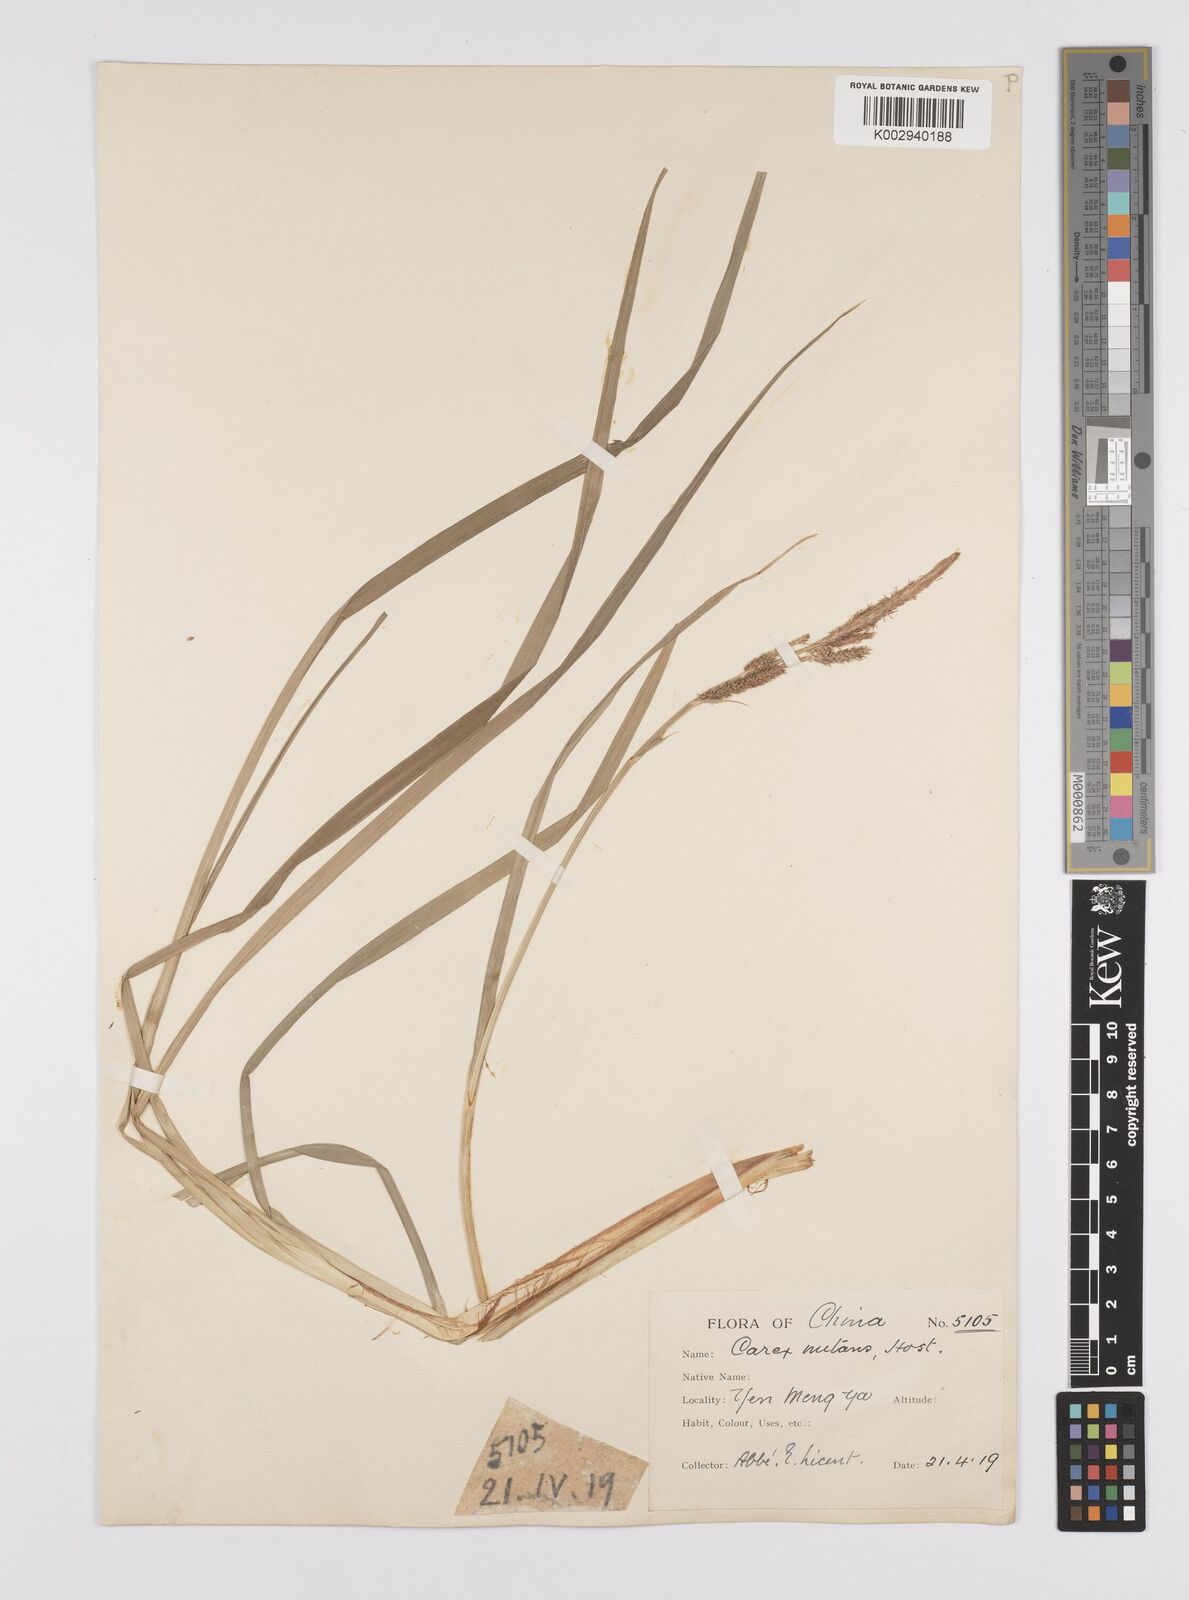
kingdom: Plantae
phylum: Tracheophyta
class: Liliopsida
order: Poales
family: Cyperaceae
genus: Carex
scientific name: Carex forficula
